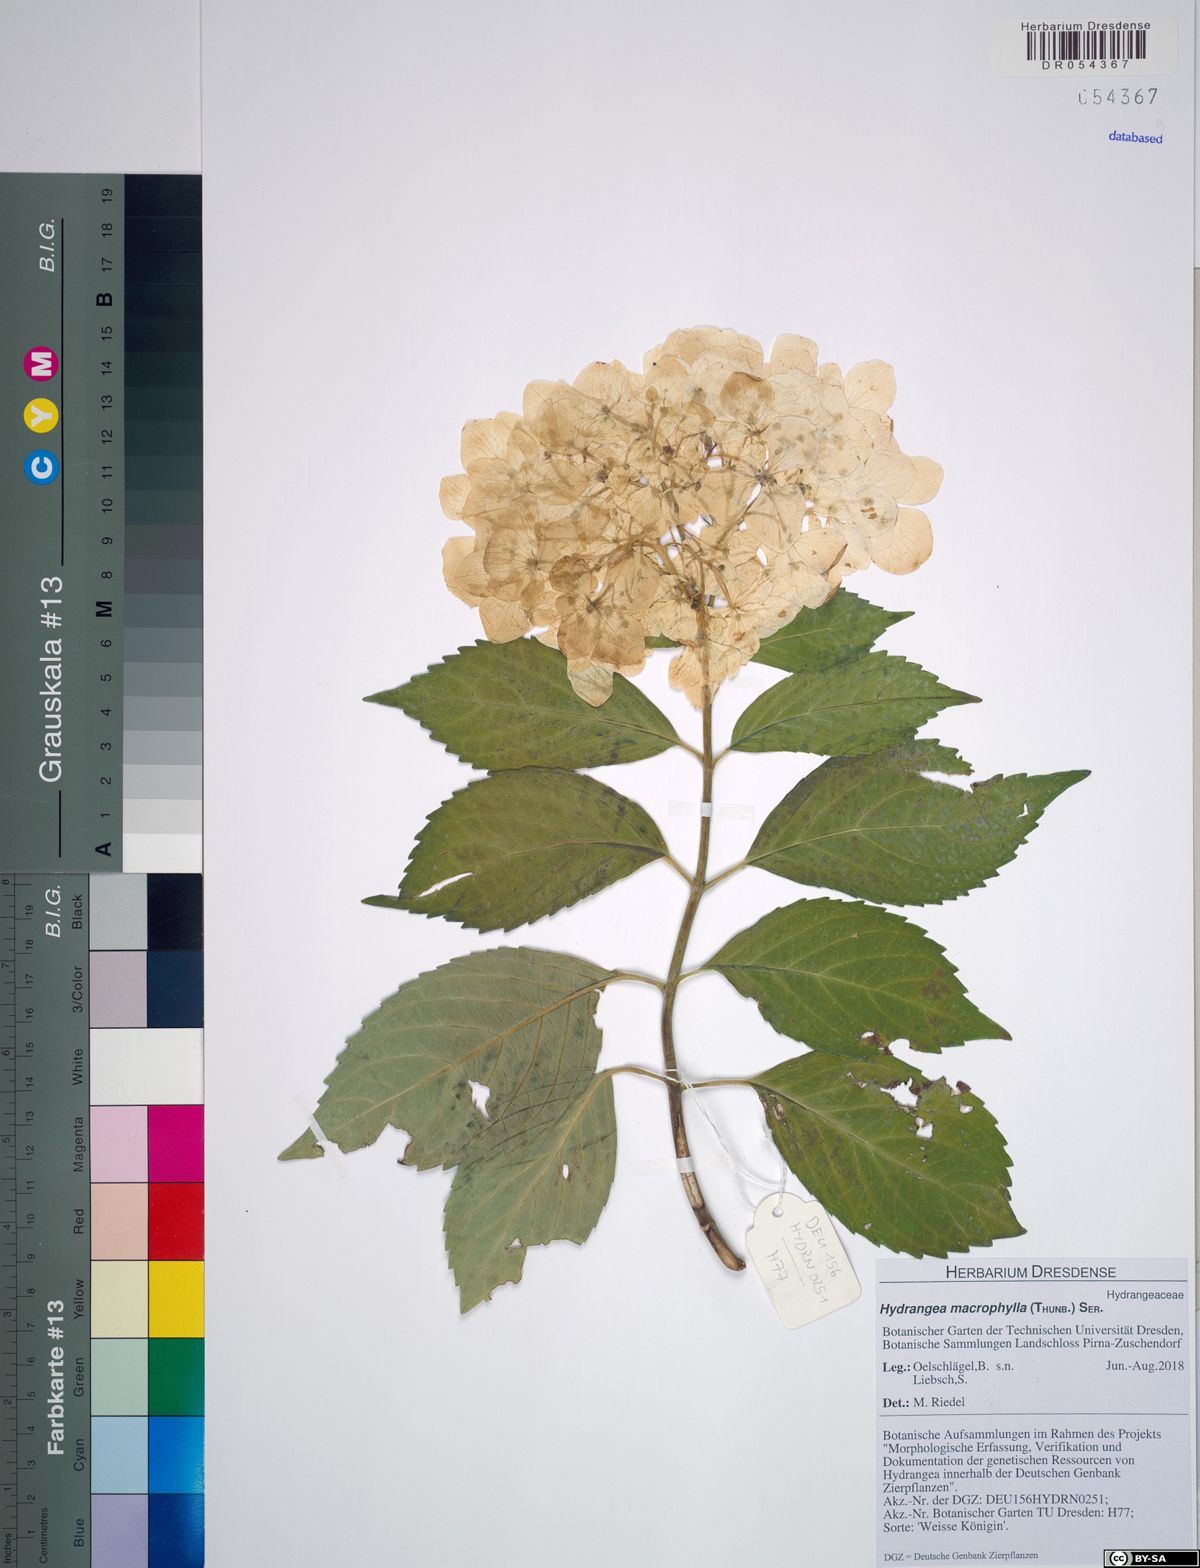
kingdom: Plantae
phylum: Tracheophyta
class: Magnoliopsida
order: Cornales
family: Hydrangeaceae
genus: Hydrangea
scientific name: Hydrangea macrophylla
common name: Hydrangea
